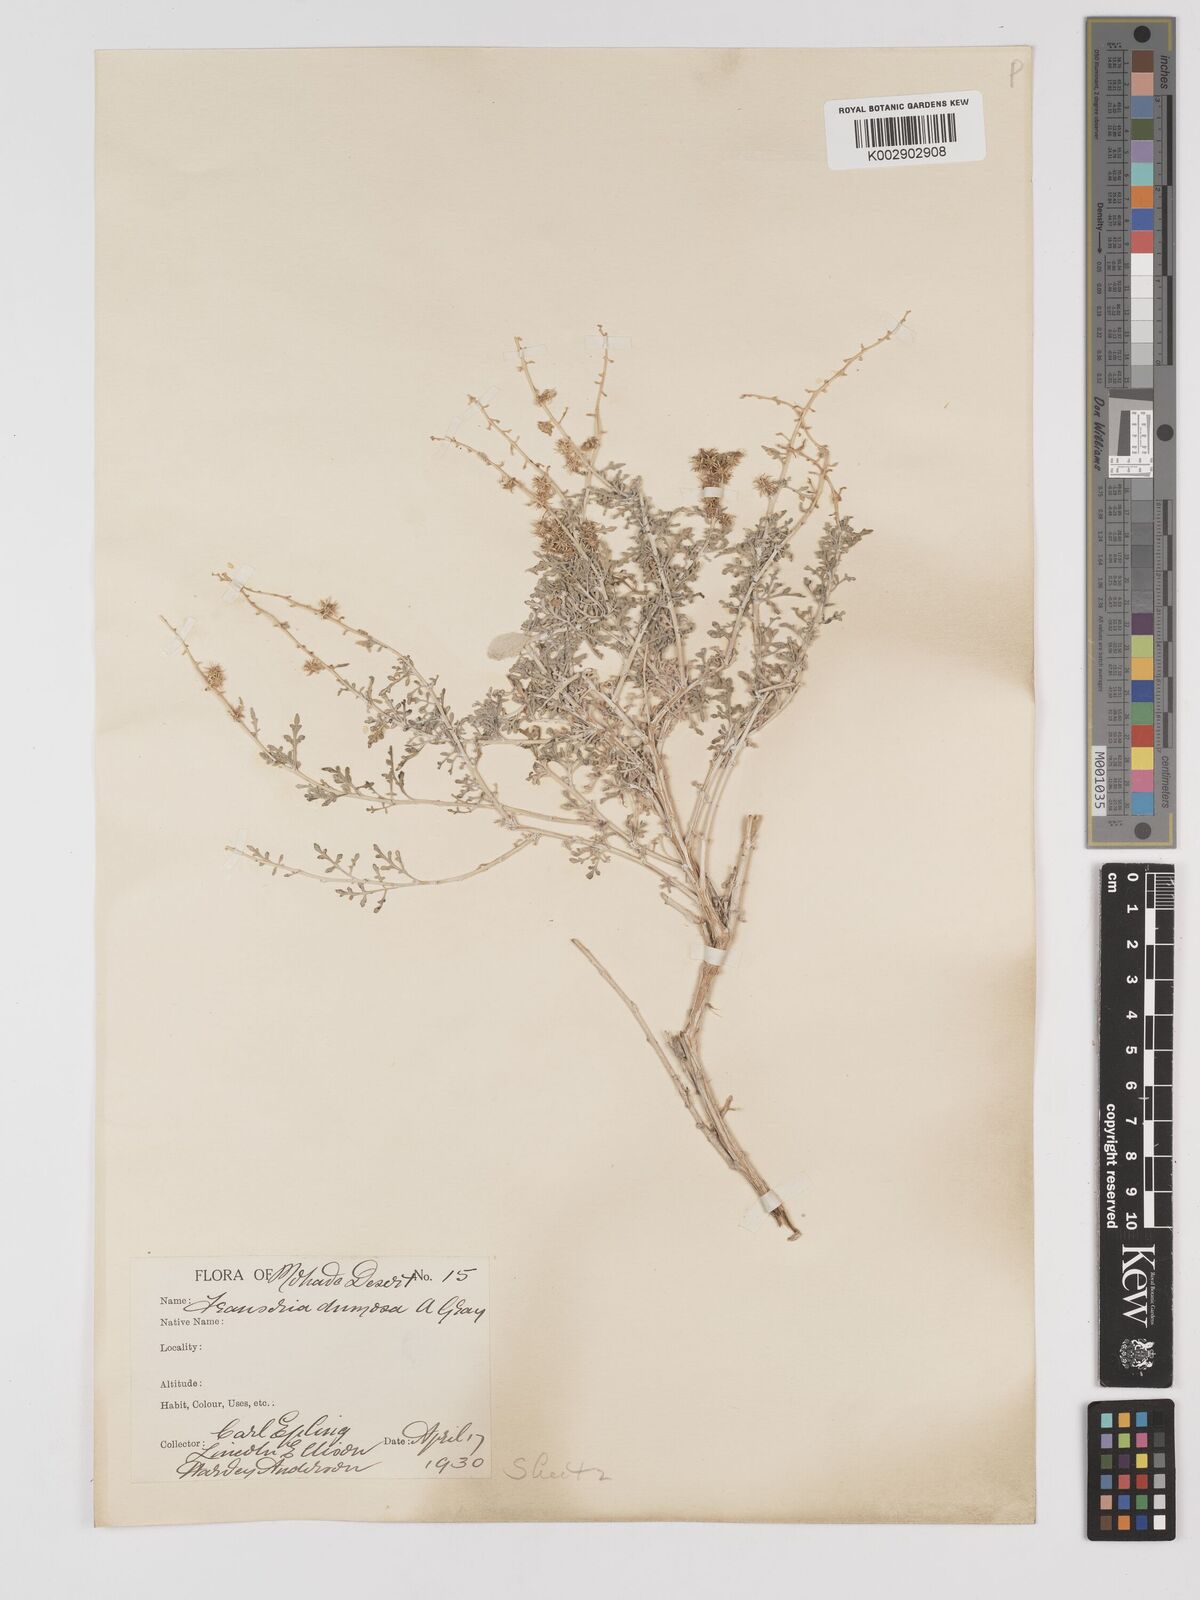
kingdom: Plantae
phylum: Tracheophyta
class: Magnoliopsida
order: Asterales
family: Asteraceae
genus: Ambrosia
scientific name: Ambrosia dumosa
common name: Bur-sage
